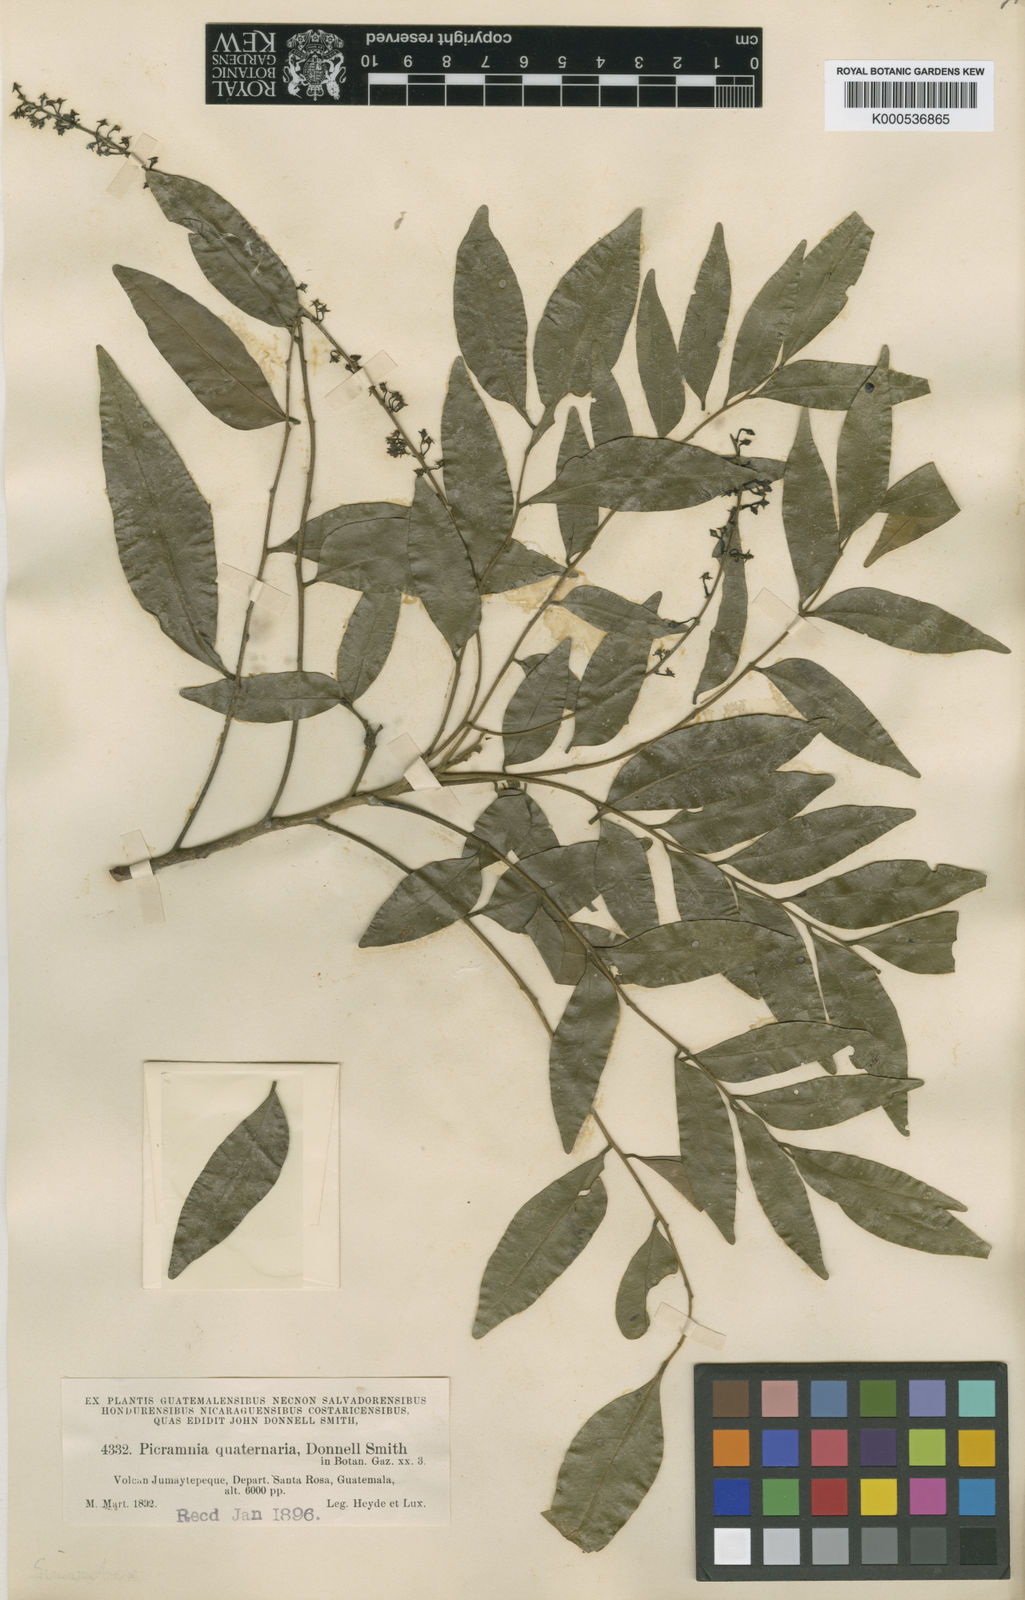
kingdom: Plantae
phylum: Tracheophyta
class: Magnoliopsida
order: Picramniales
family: Picramniaceae
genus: Picramnia
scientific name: Picramnia antidesma
